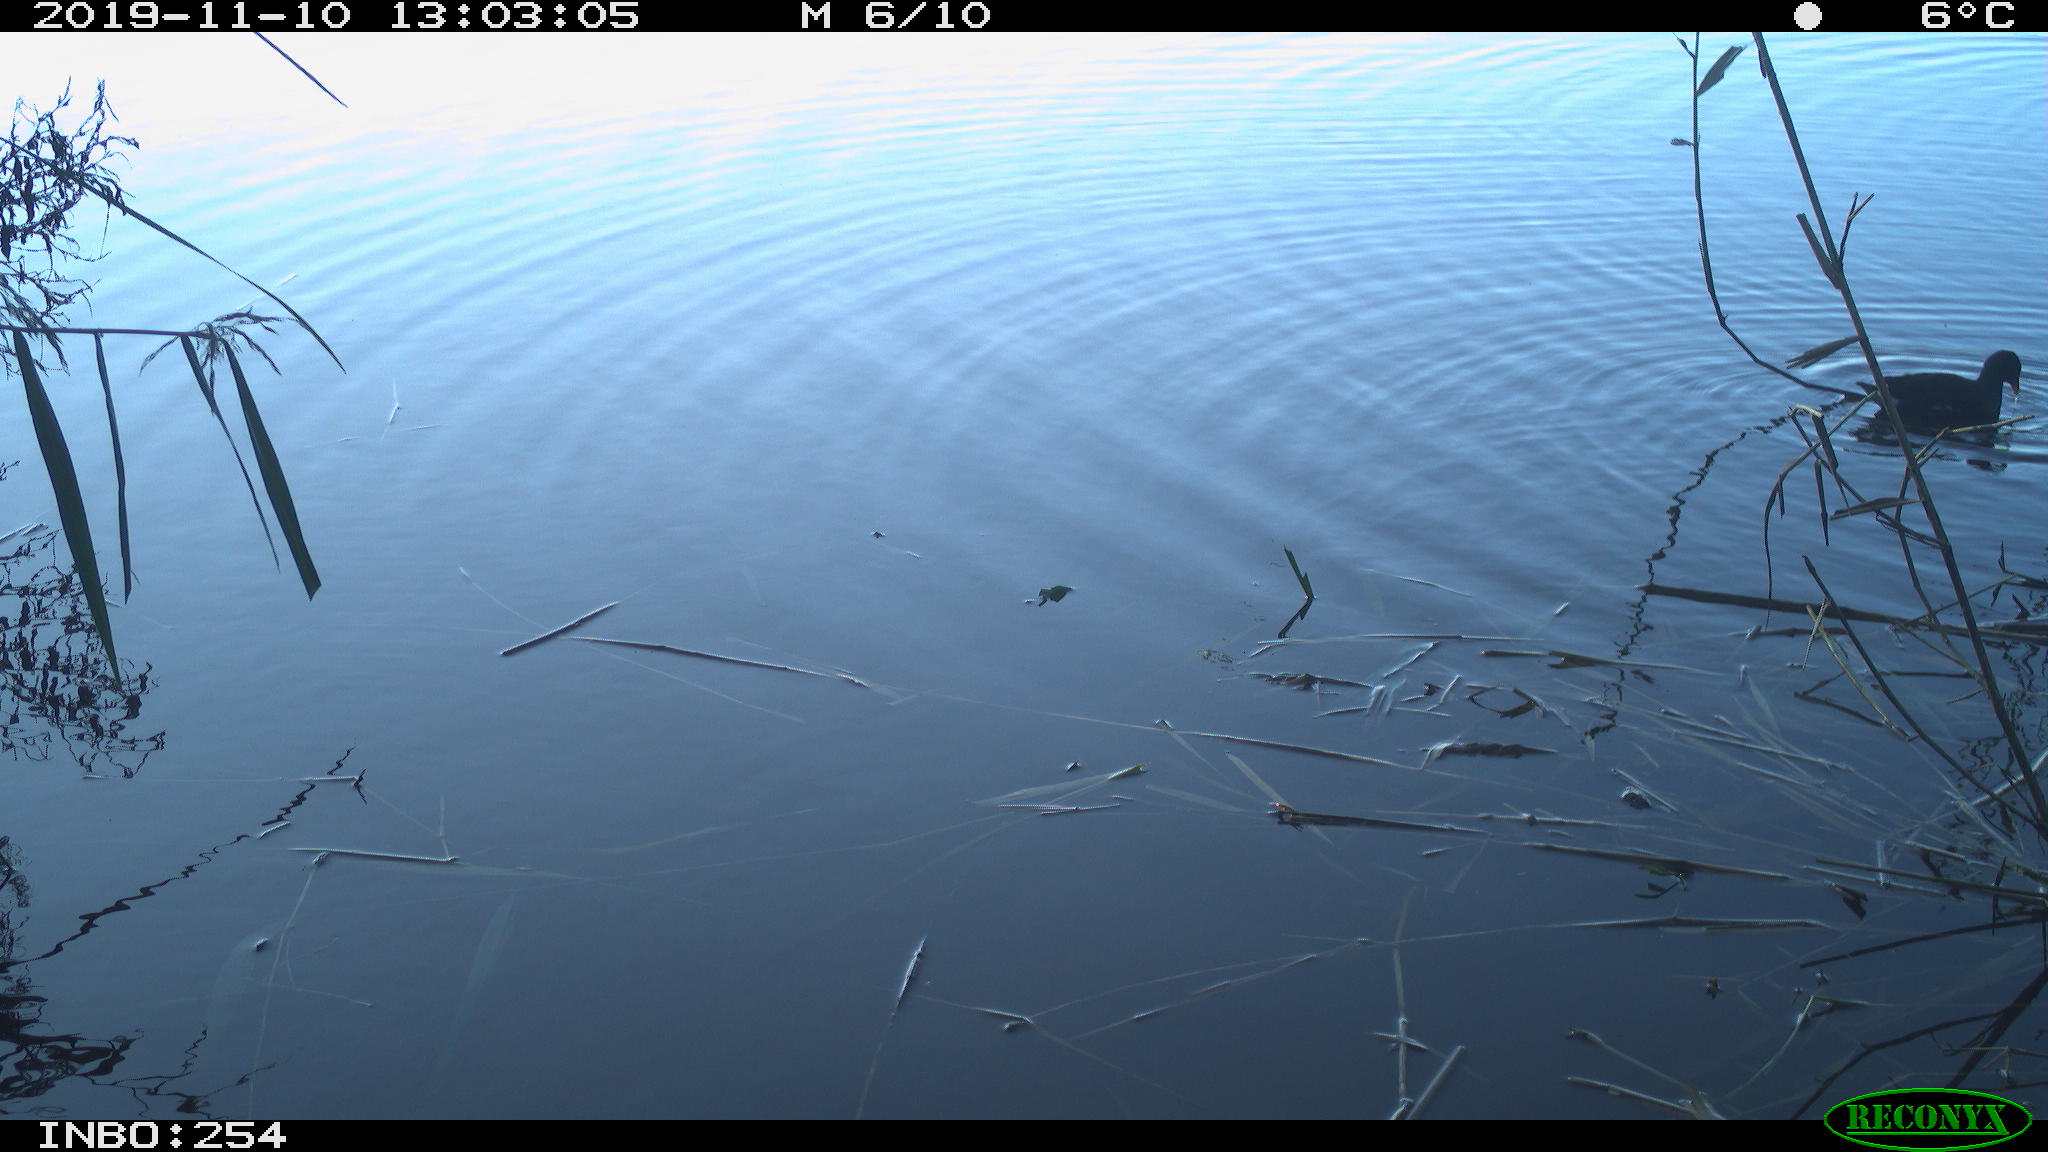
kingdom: Animalia
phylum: Chordata
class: Aves
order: Gruiformes
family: Rallidae
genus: Gallinula
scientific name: Gallinula chloropus
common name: Common moorhen
